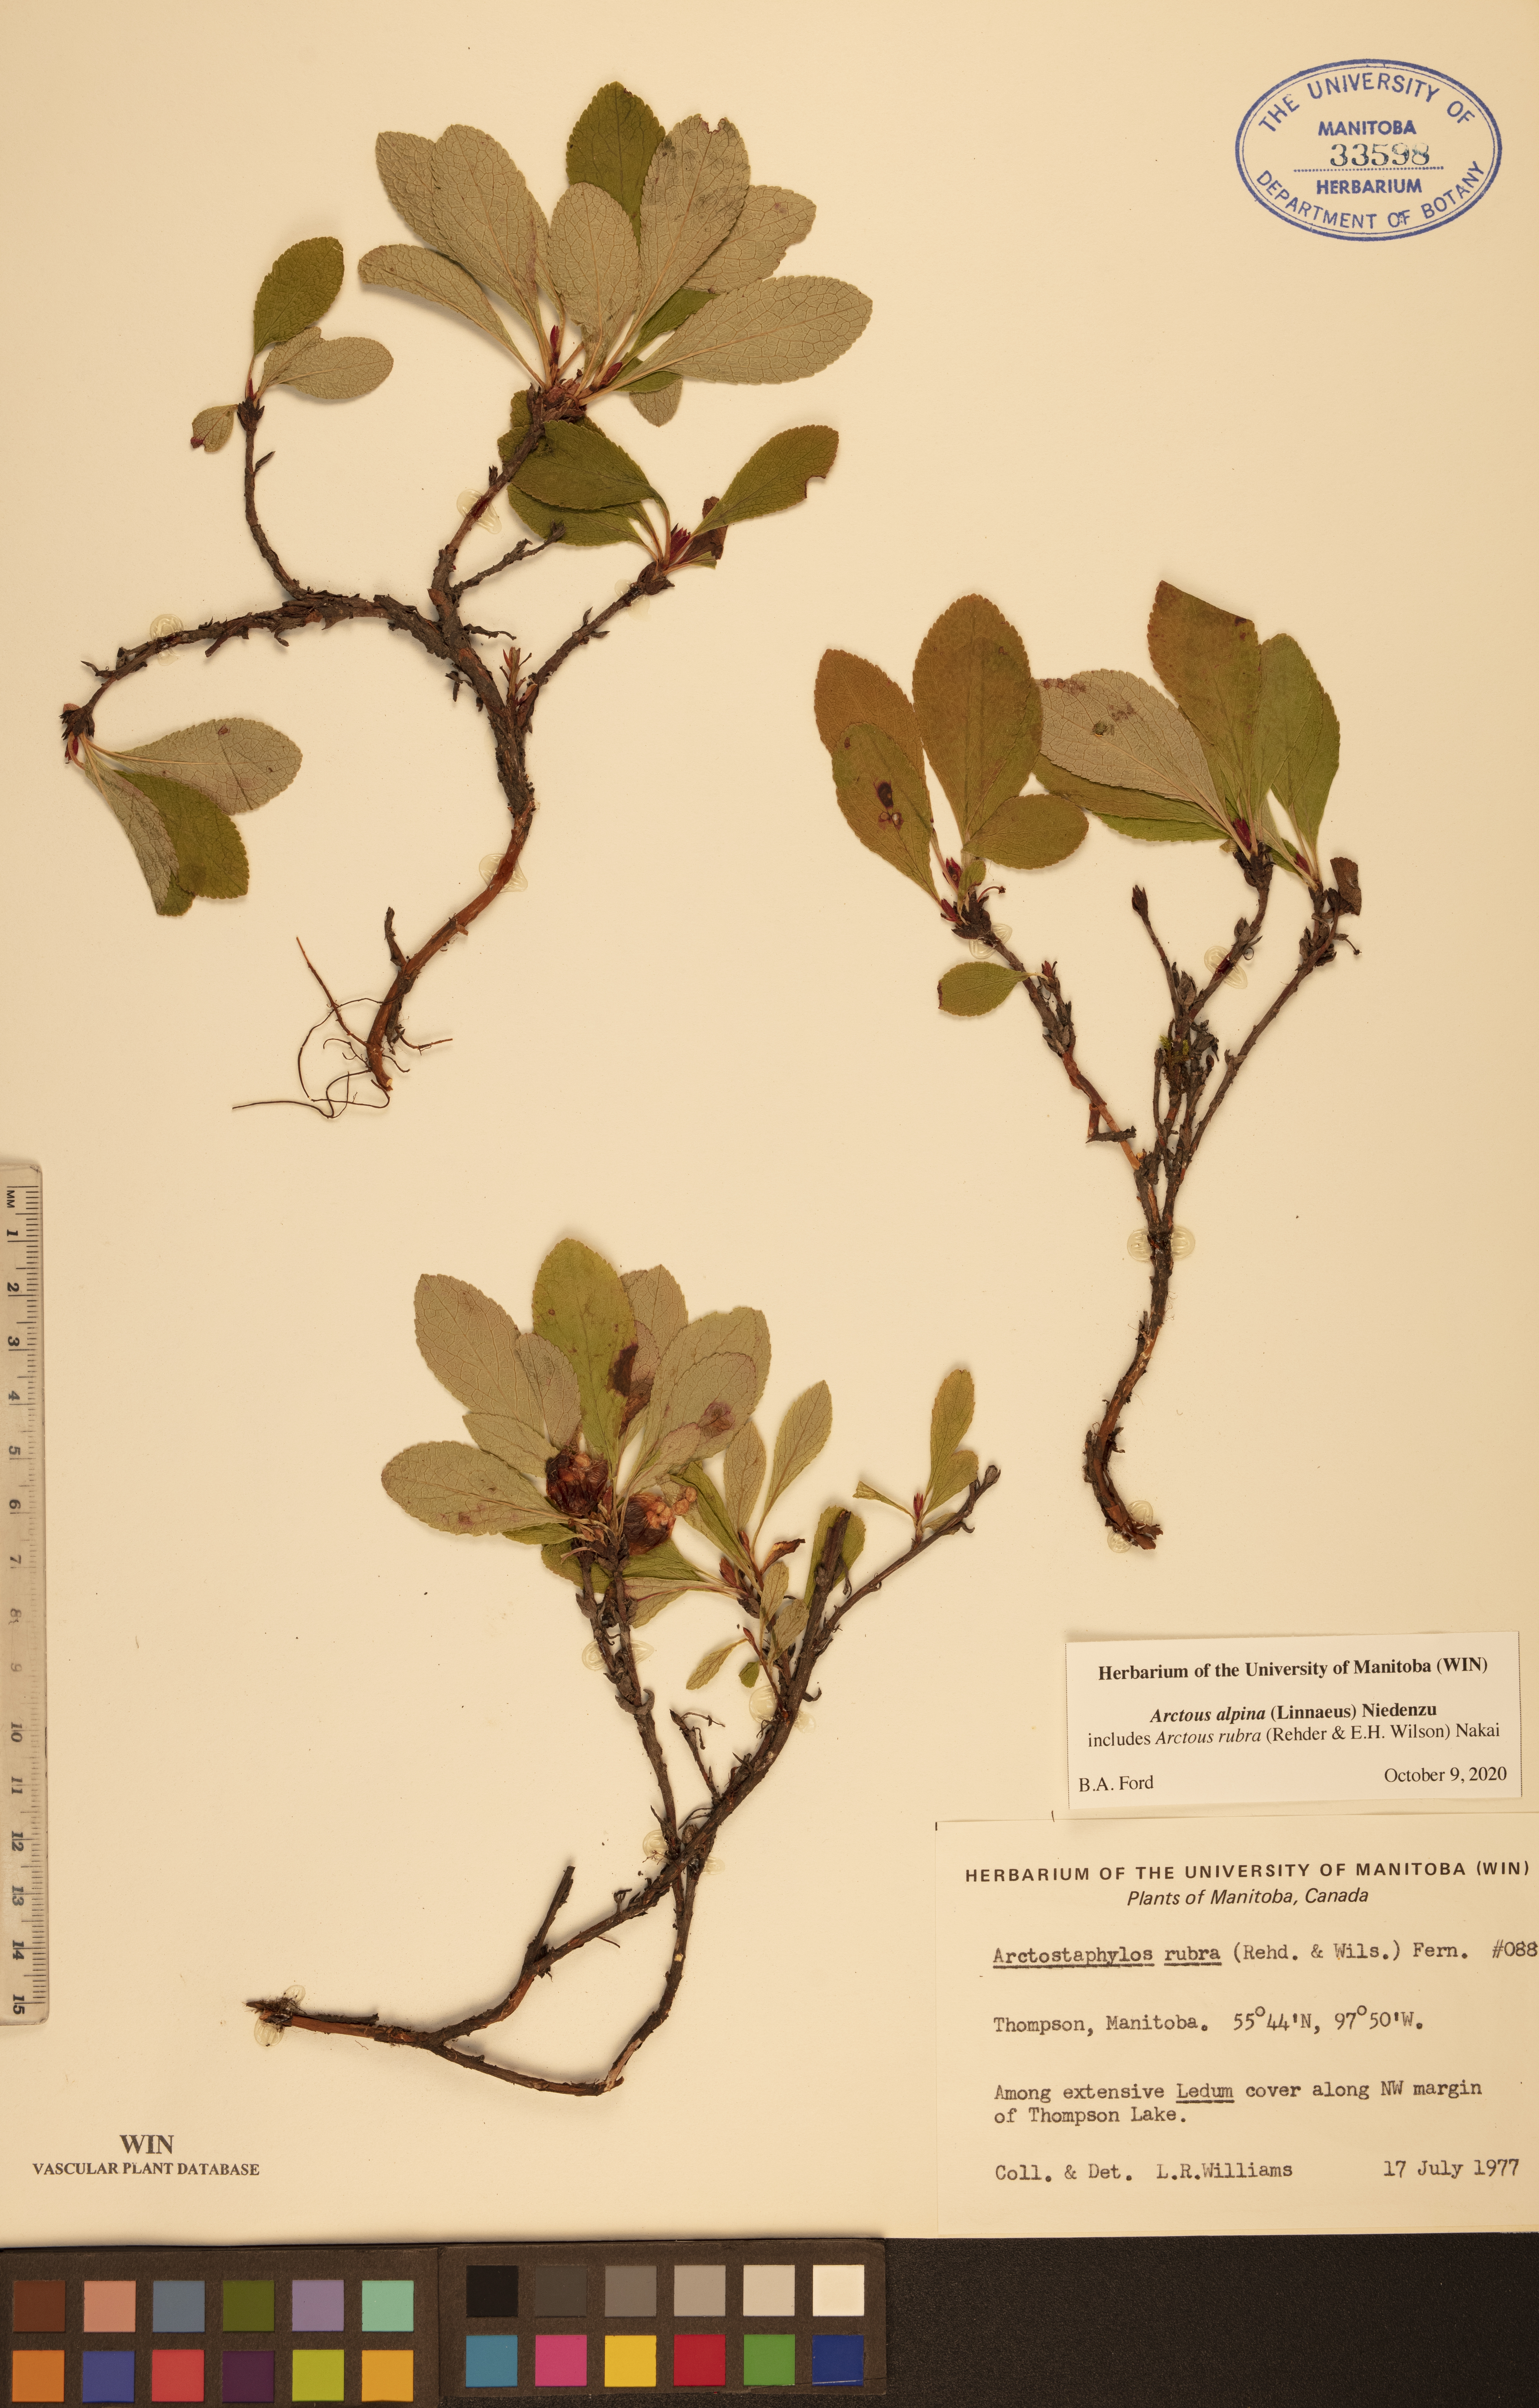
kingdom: Plantae
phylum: Tracheophyta
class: Magnoliopsida
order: Ericales
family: Ericaceae
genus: Arctostaphylos
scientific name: Arctostaphylos alpinus
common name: Alpine bearberry
